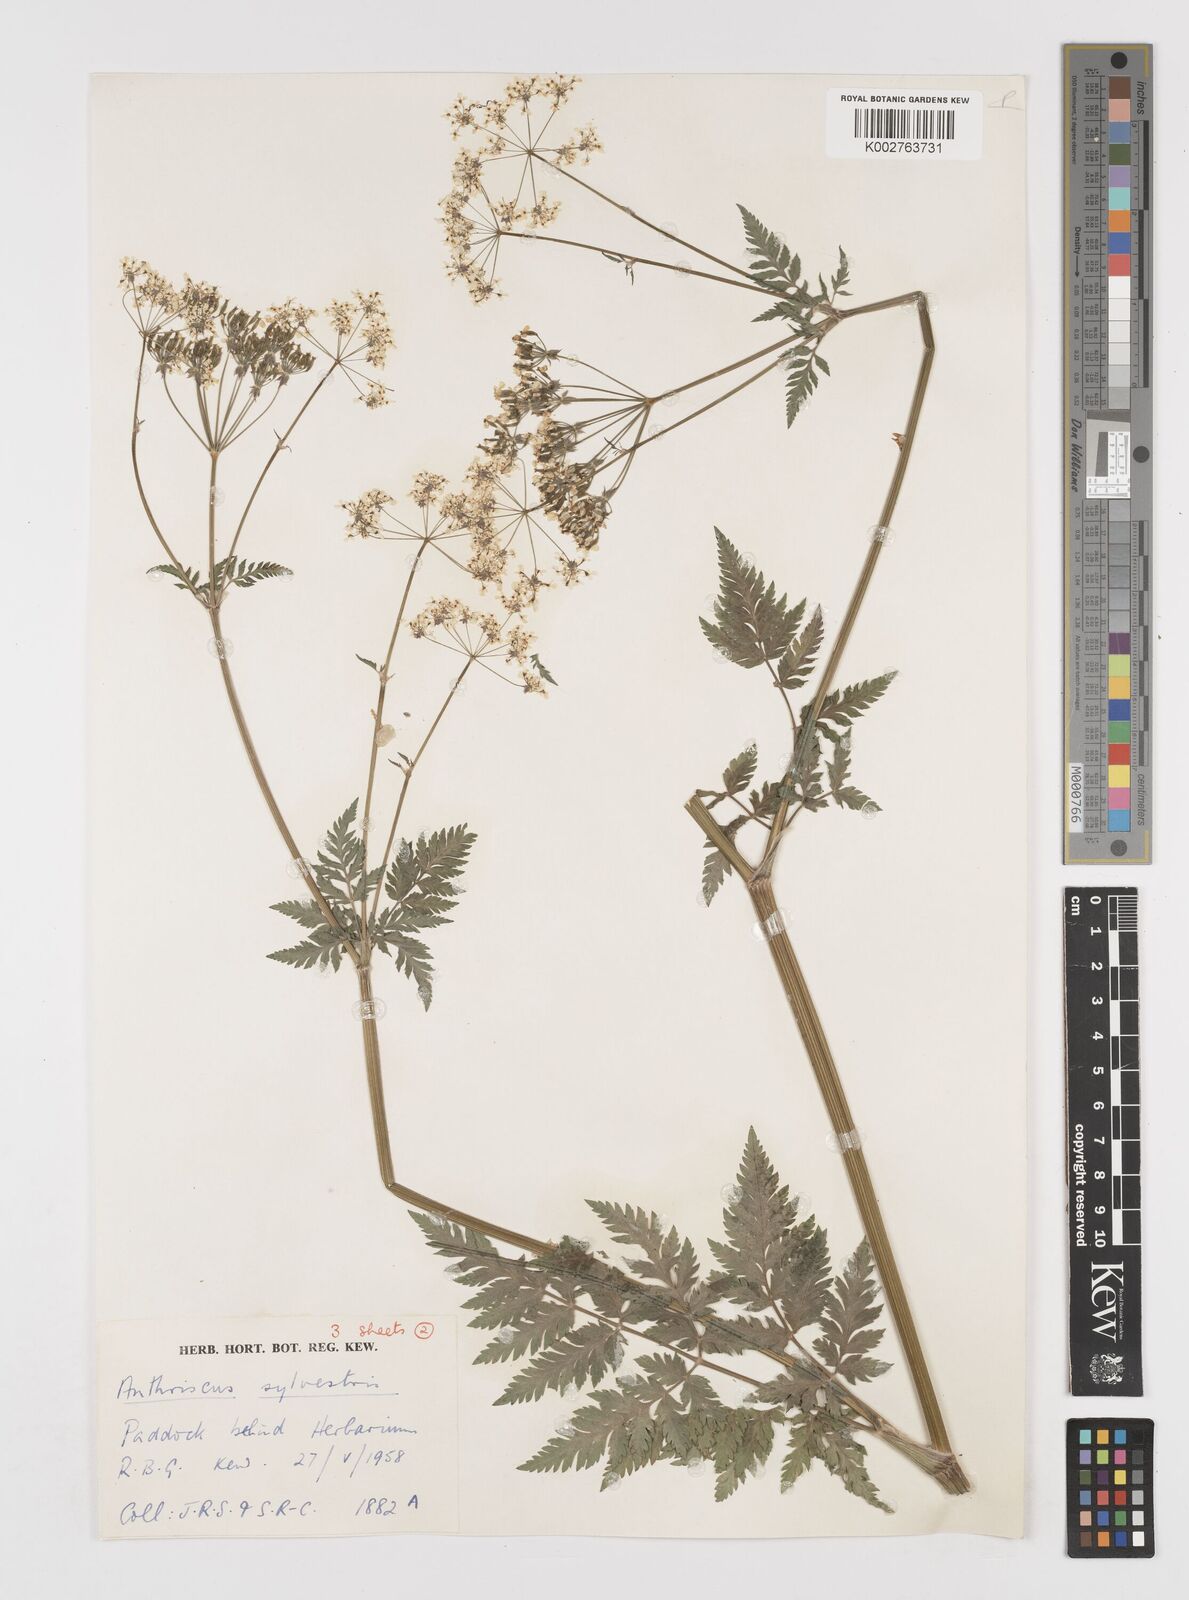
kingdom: Plantae
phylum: Tracheophyta
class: Magnoliopsida
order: Apiales
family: Apiaceae
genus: Anthriscus
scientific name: Anthriscus sylvestris
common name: Cow parsley
